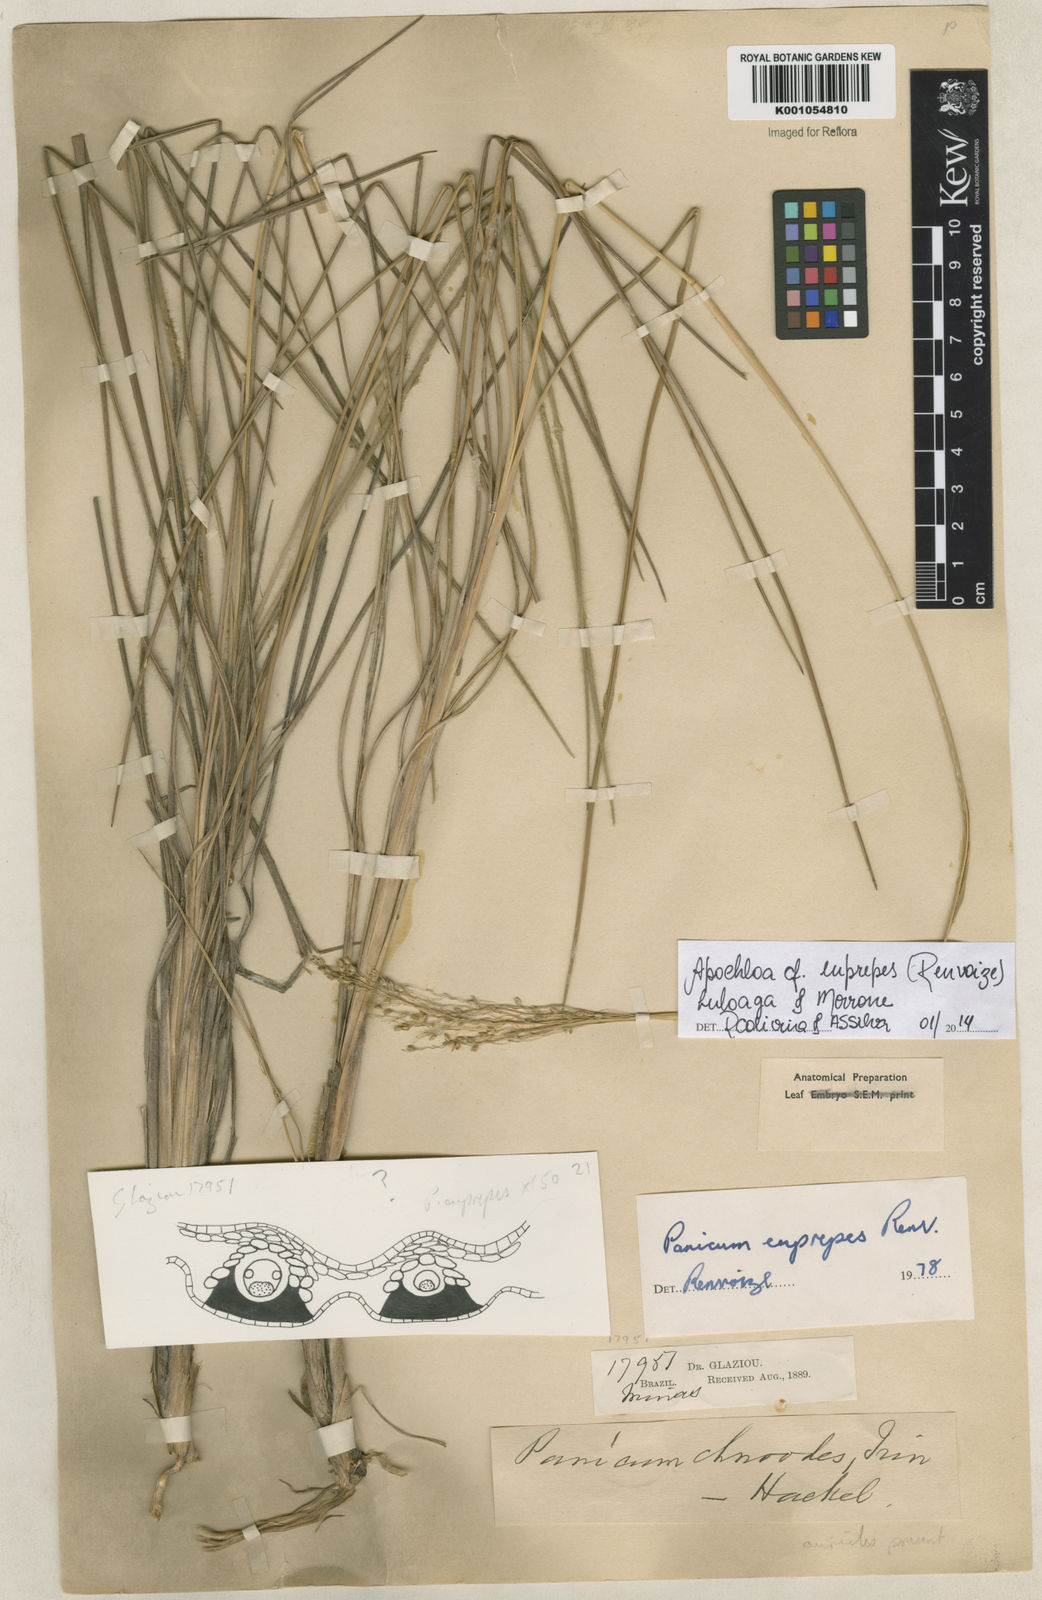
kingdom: Plantae
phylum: Tracheophyta
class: Liliopsida
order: Poales
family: Poaceae
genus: Apochloa
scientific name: Apochloa euprepes
